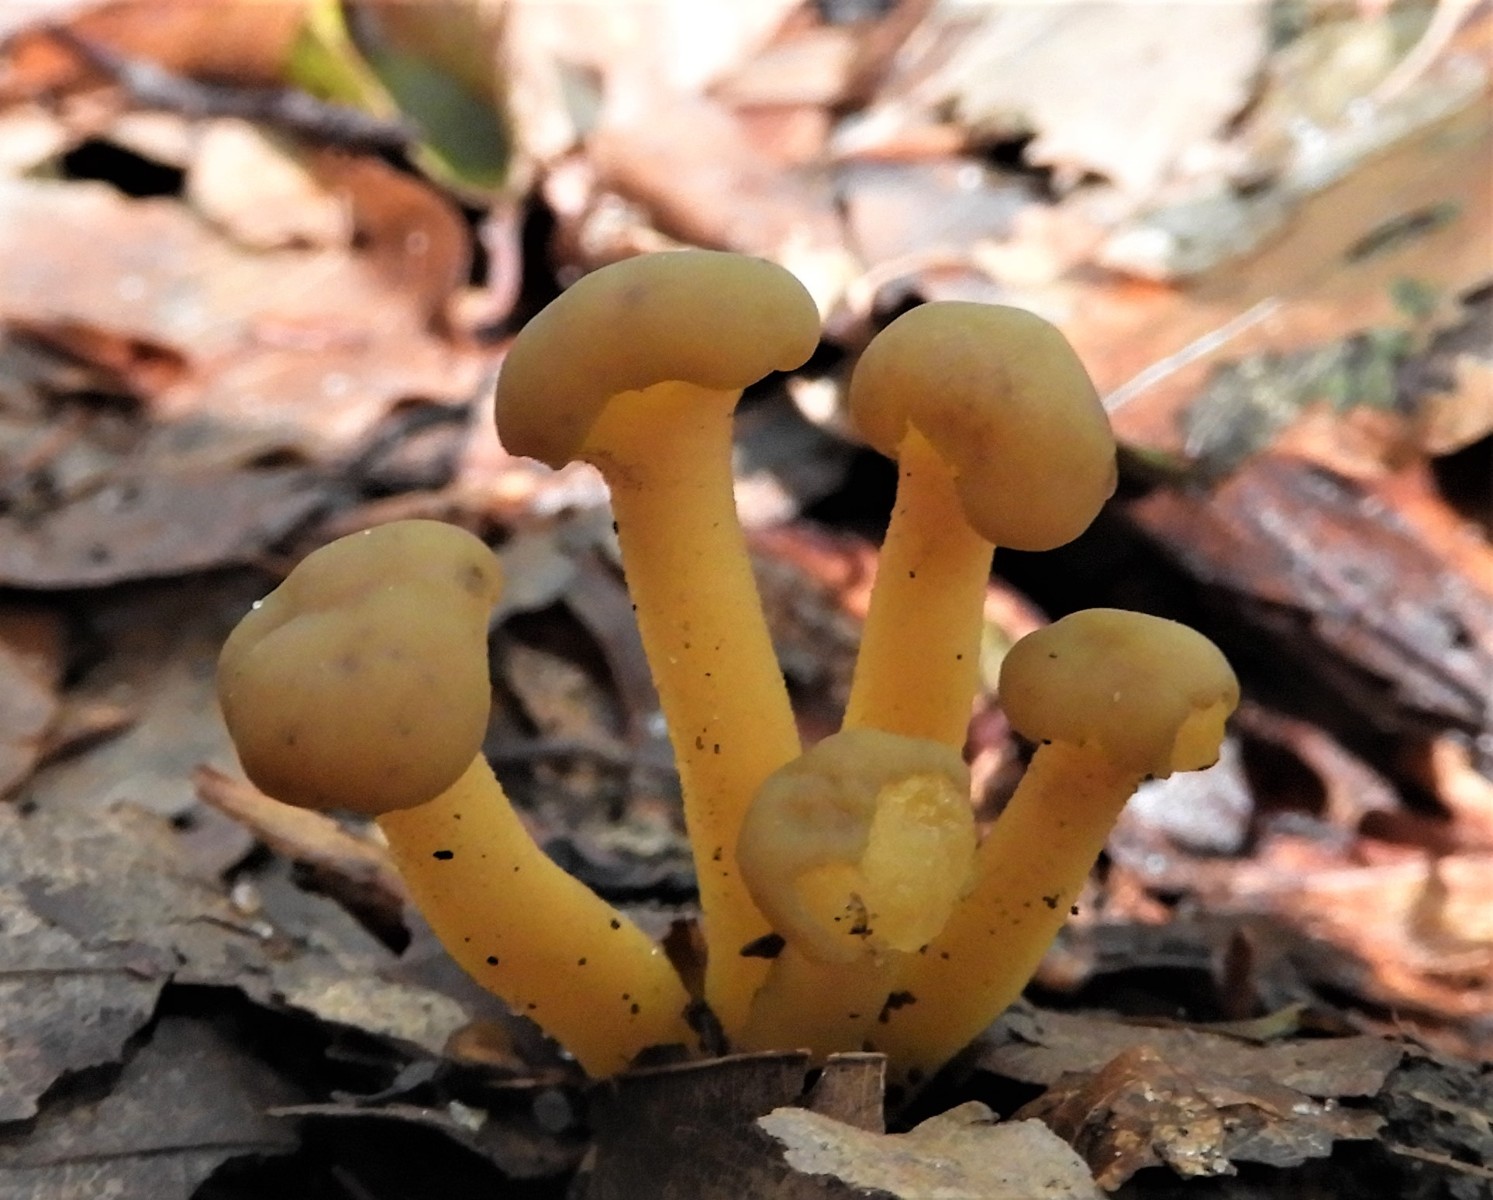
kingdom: Fungi
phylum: Ascomycota
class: Leotiomycetes
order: Leotiales
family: Leotiaceae
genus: Leotia
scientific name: Leotia lubrica
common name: ravsvamp
